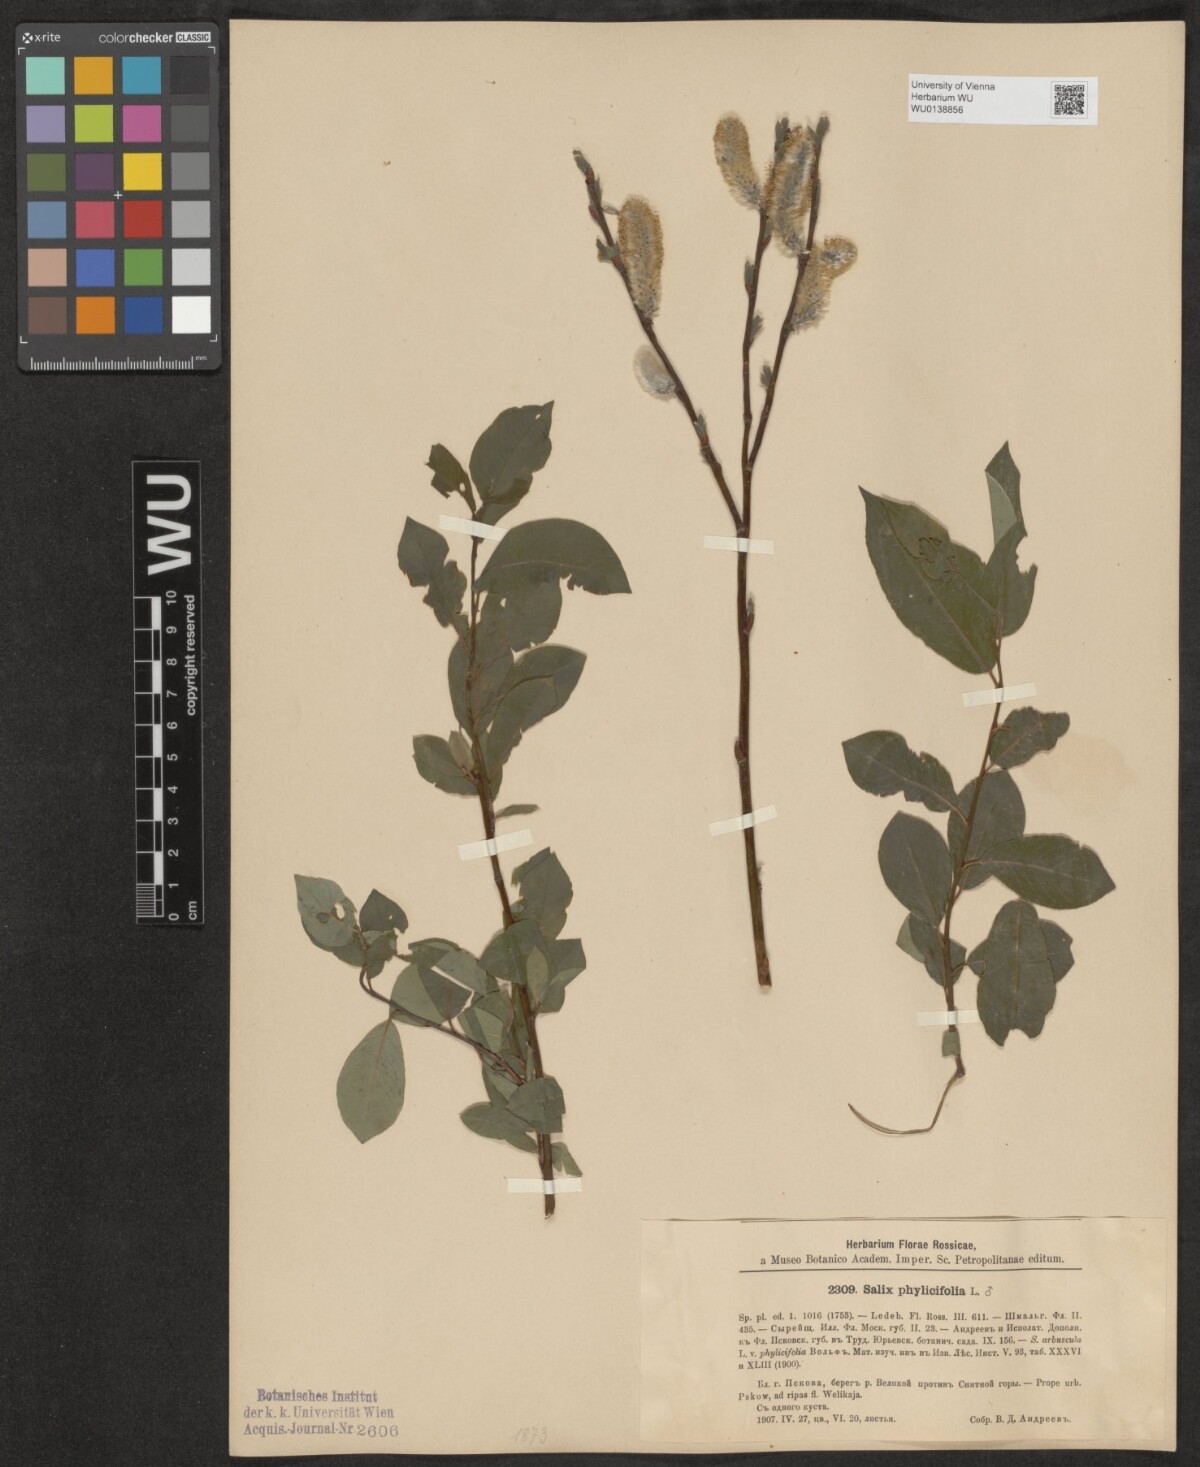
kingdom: Plantae
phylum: Tracheophyta
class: Magnoliopsida
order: Malpighiales
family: Salicaceae
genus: Salix
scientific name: Salix phylicifolia
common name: Tea-leaved willow
